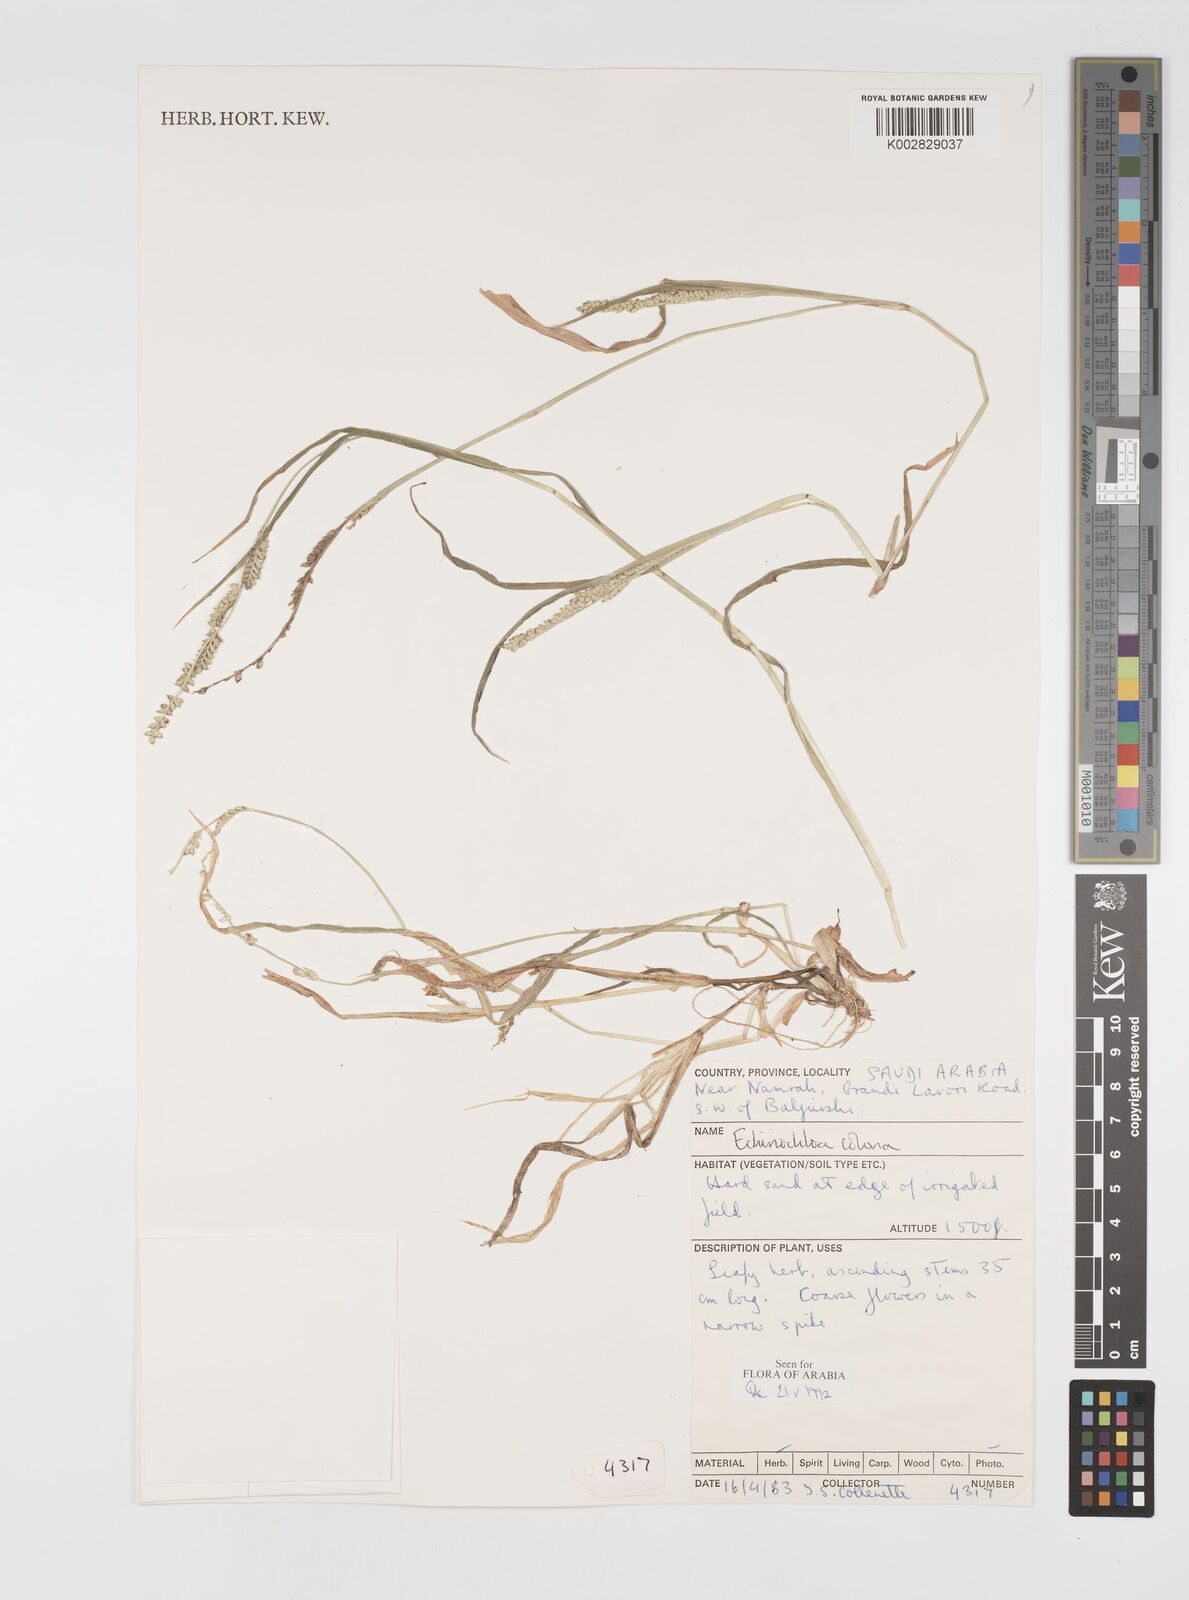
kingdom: Plantae
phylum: Tracheophyta
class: Liliopsida
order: Poales
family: Poaceae
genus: Echinochloa
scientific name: Echinochloa colonum
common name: Jungle rice
